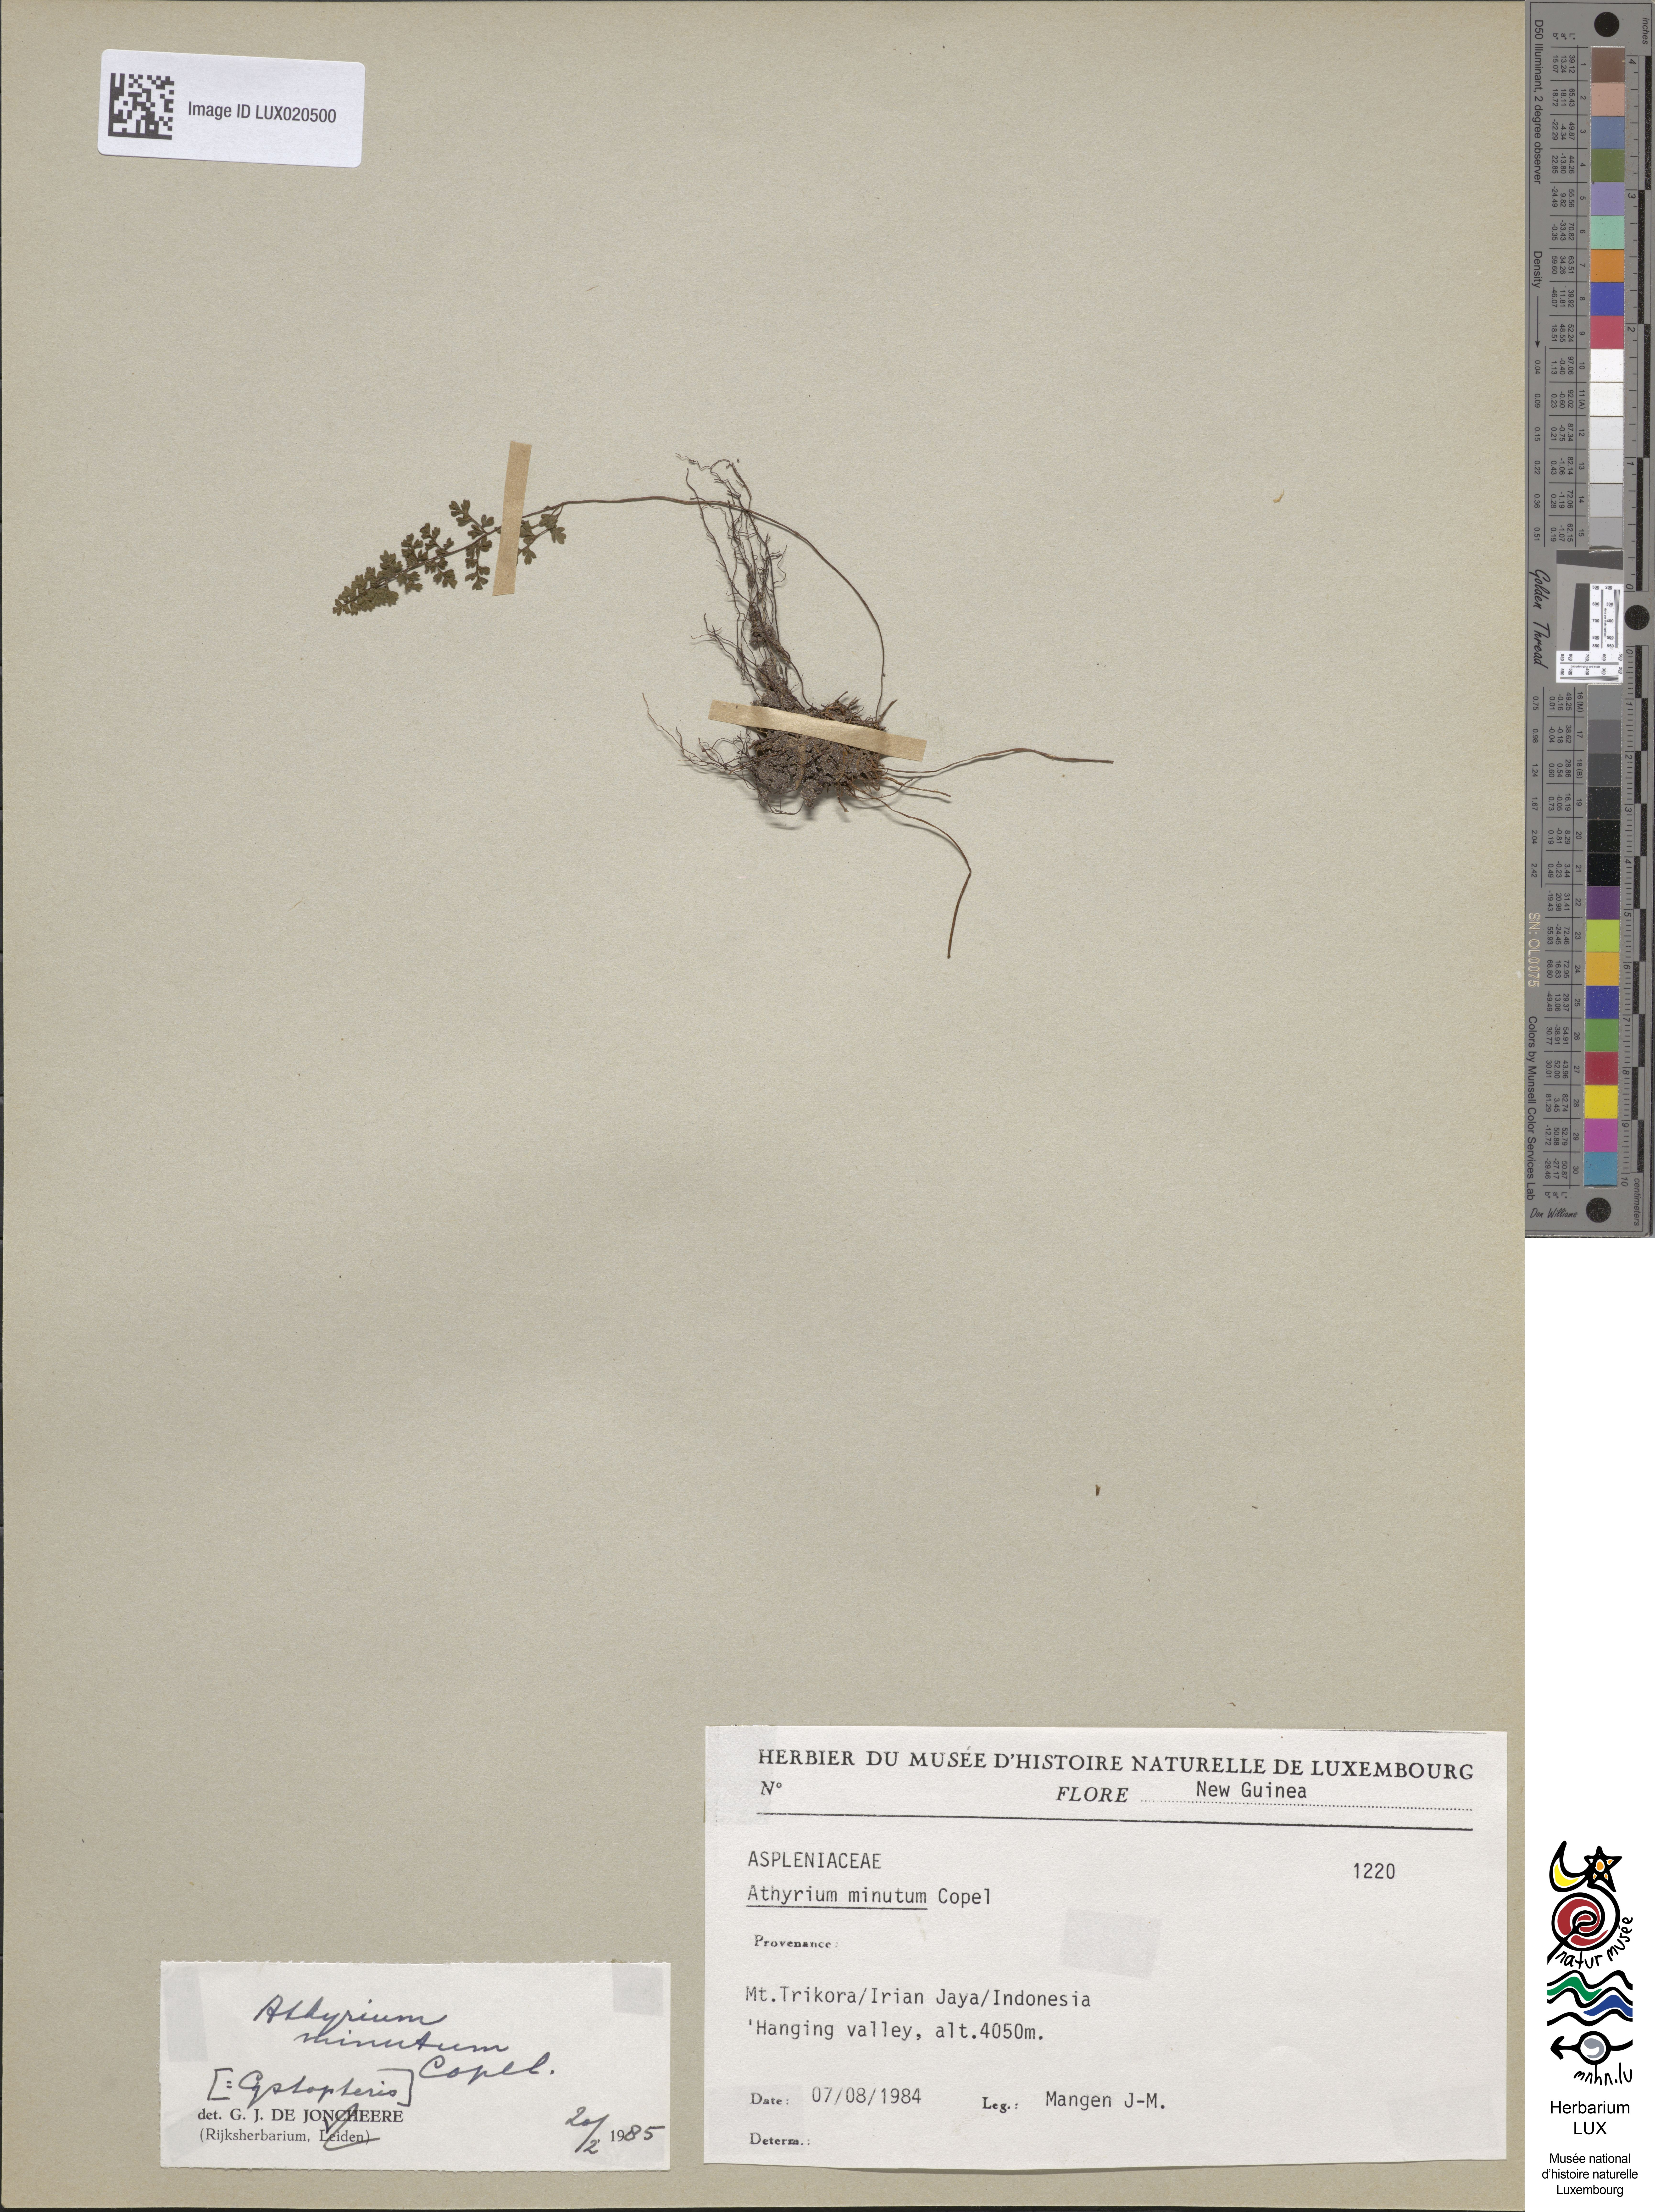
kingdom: Plantae
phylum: Tracheophyta
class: Polypodiopsida
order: Polypodiales
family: Athyriaceae
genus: Athyrium
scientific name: Athyrium minutum
